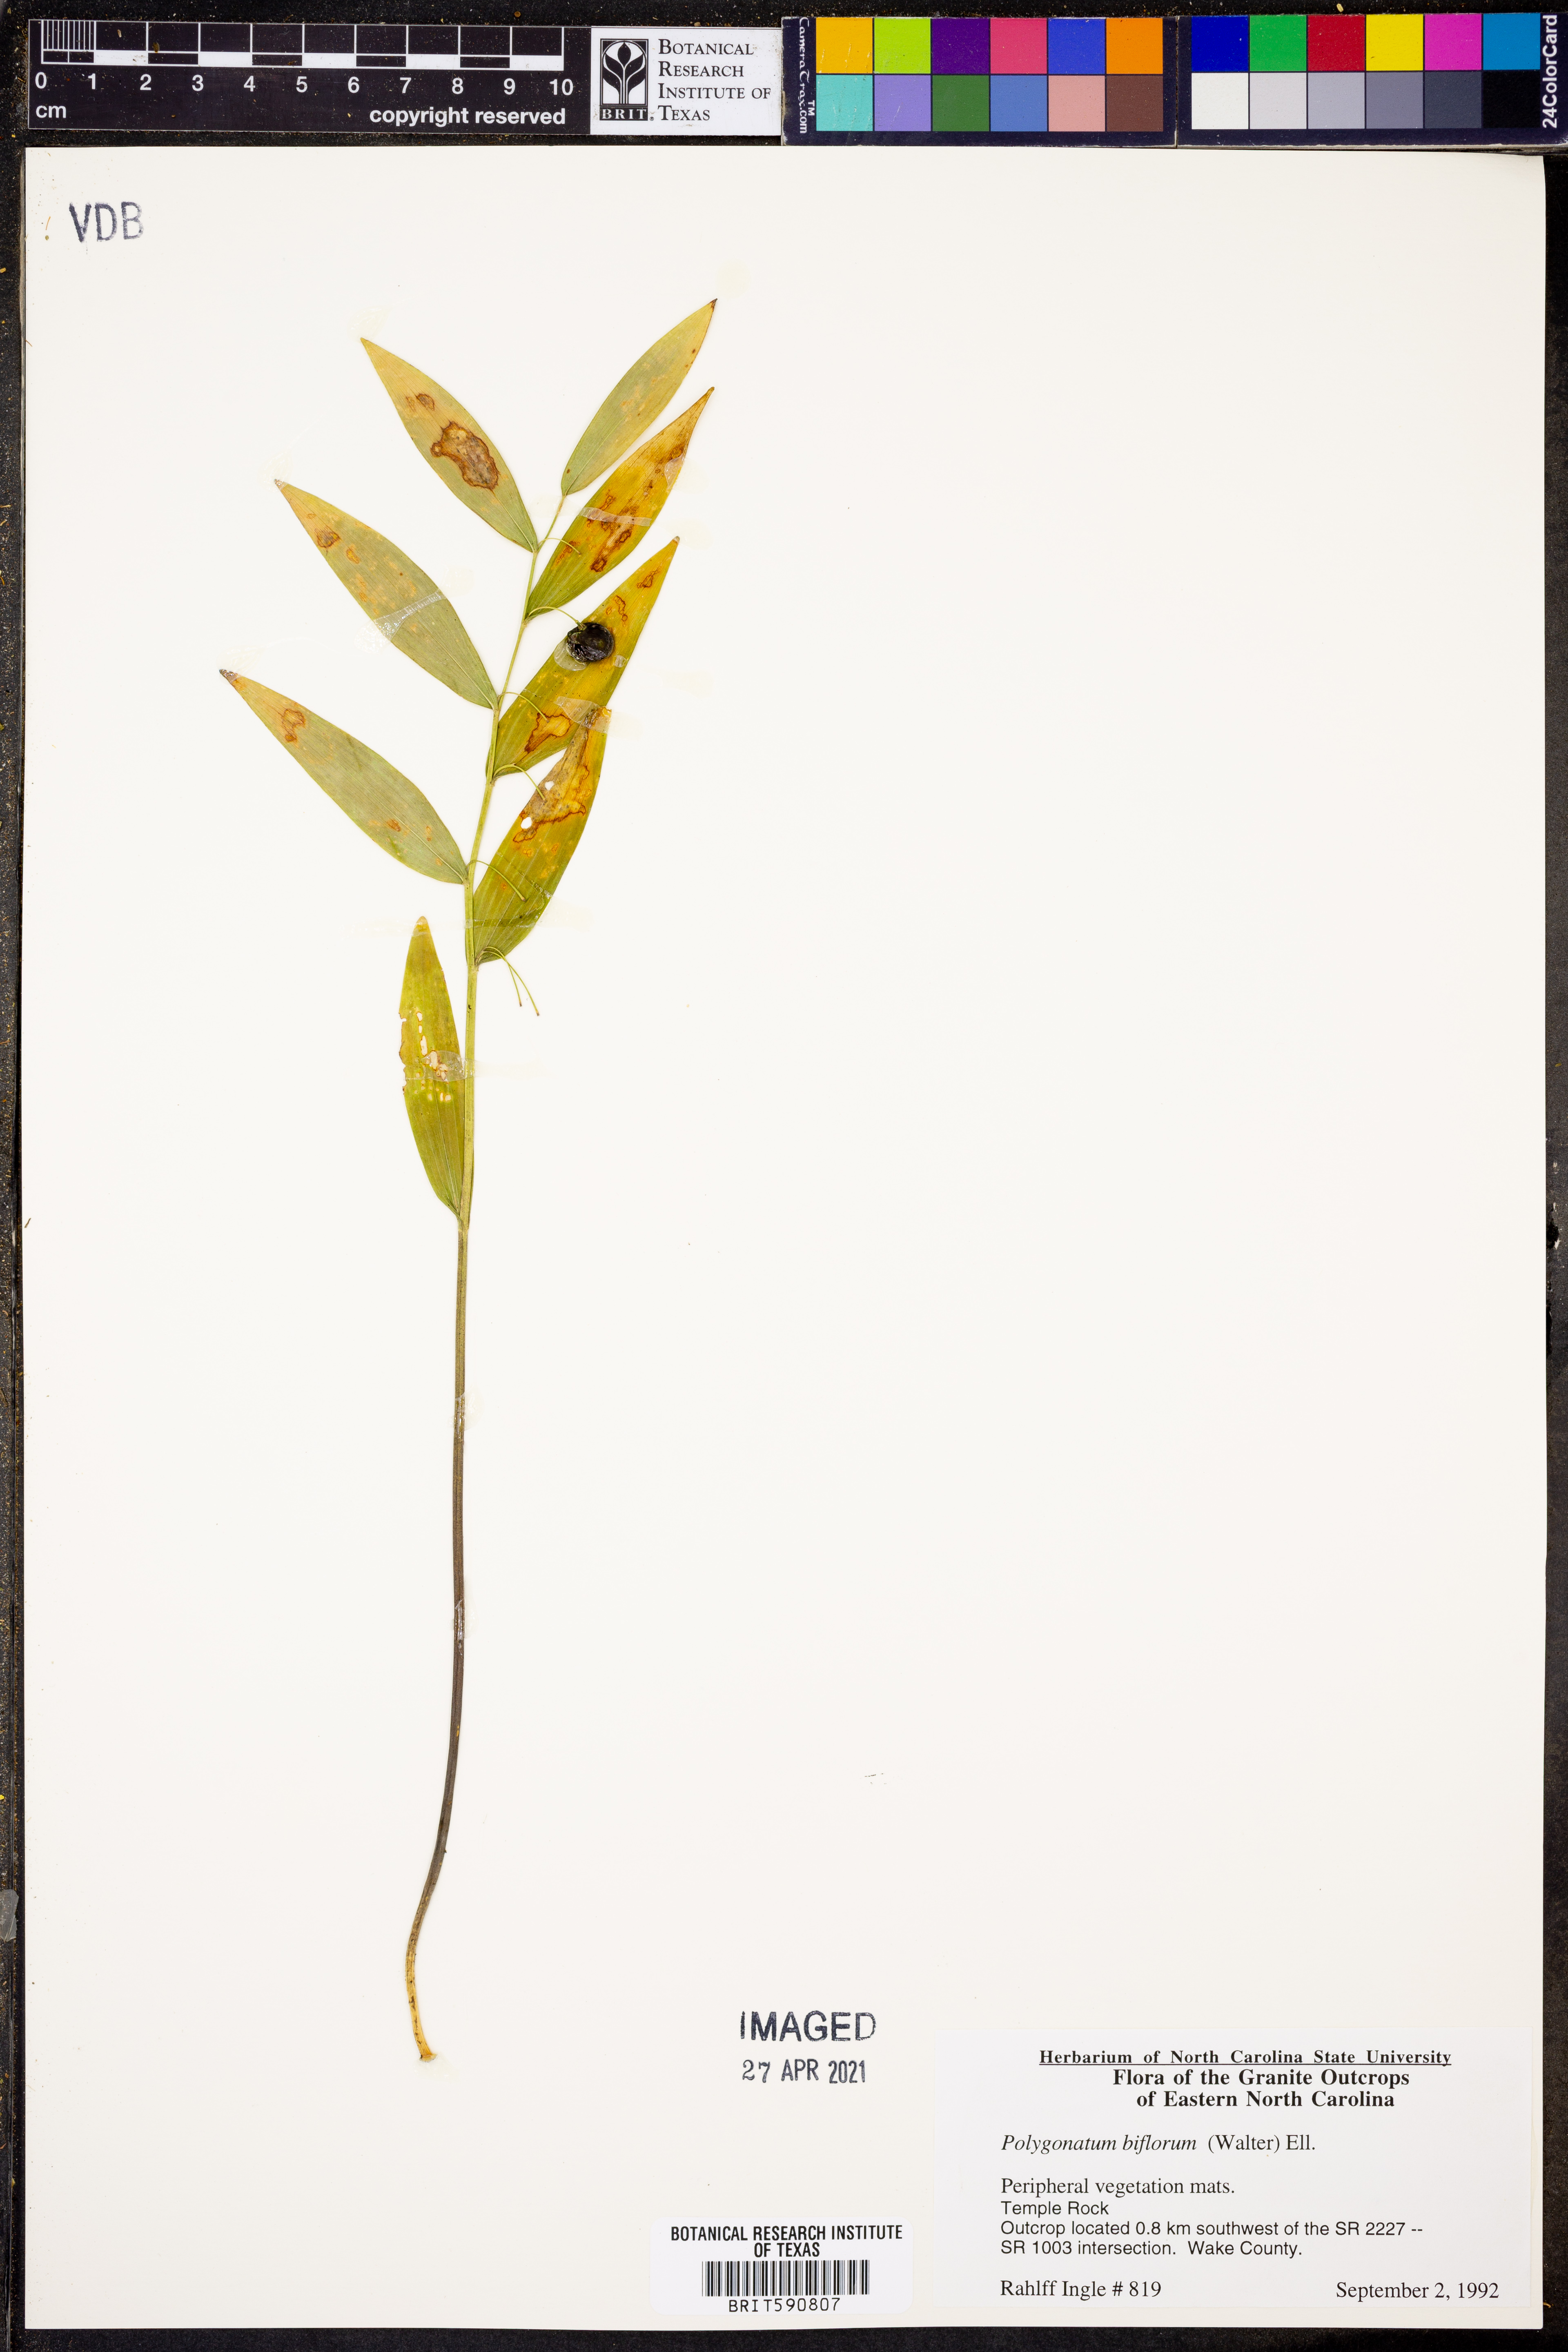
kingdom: Plantae
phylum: Tracheophyta
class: Liliopsida
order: Asparagales
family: Asparagaceae
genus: Polygonatum
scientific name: Polygonatum biflorum
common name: American solomon's-seal
